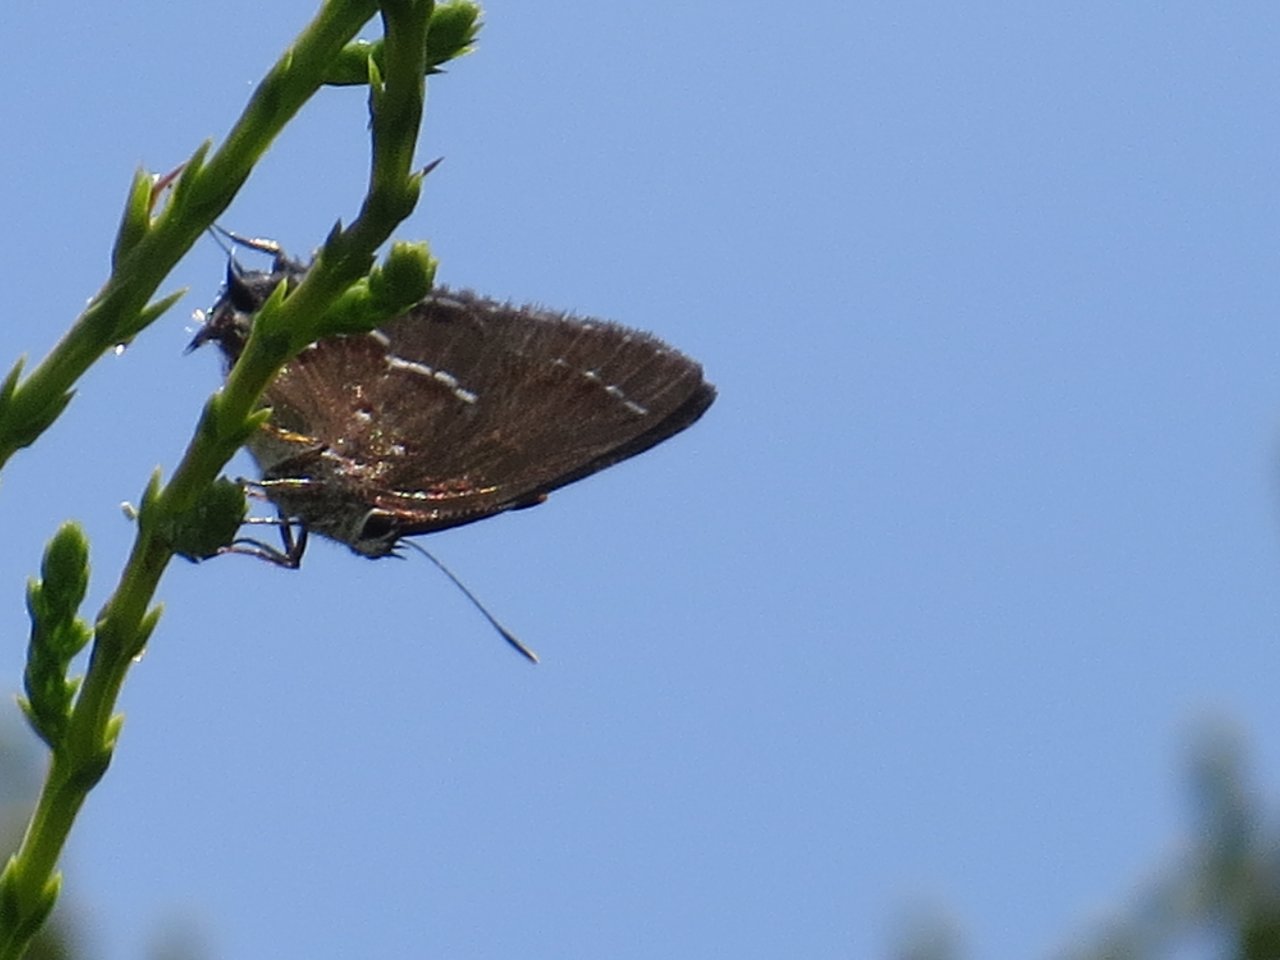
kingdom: Animalia
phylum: Arthropoda
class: Insecta
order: Lepidoptera
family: Lycaenidae
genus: Mitoura
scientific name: Mitoura gryneus
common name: Juniper Hairstreak
